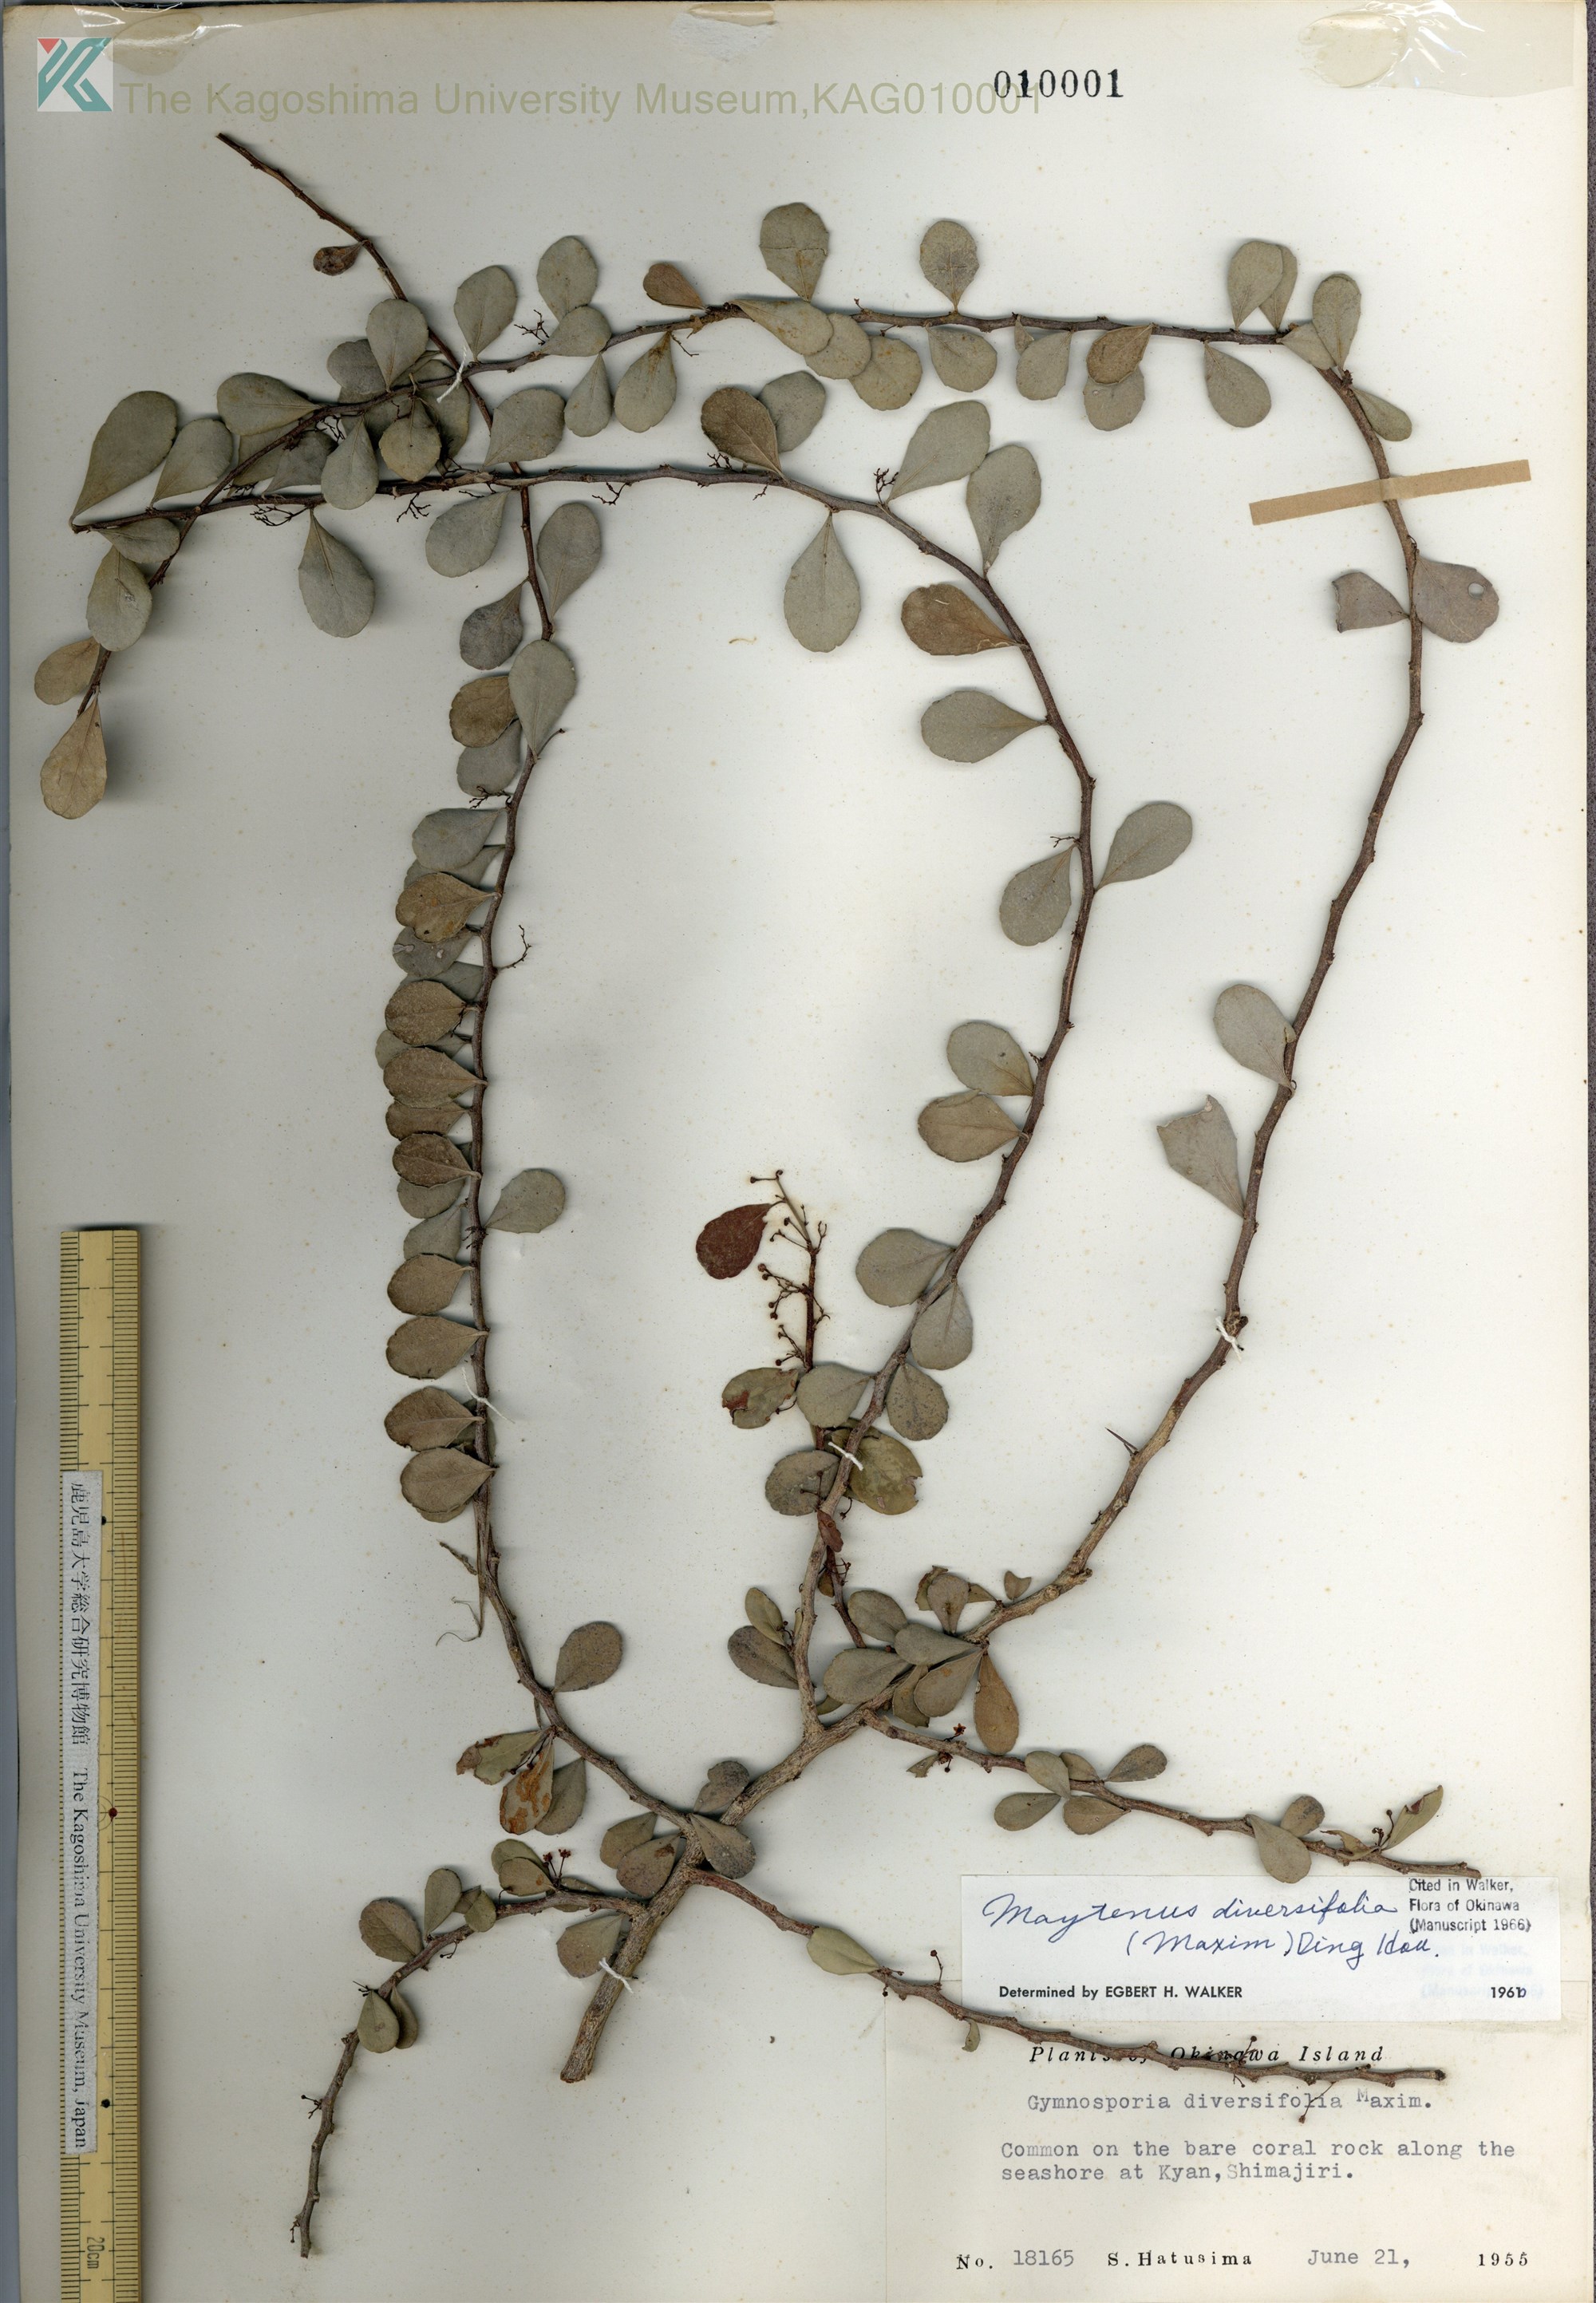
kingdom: Plantae
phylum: Tracheophyta
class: Magnoliopsida
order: Celastrales
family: Celastraceae
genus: Gymnosporia
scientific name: Gymnosporia diversifolia
